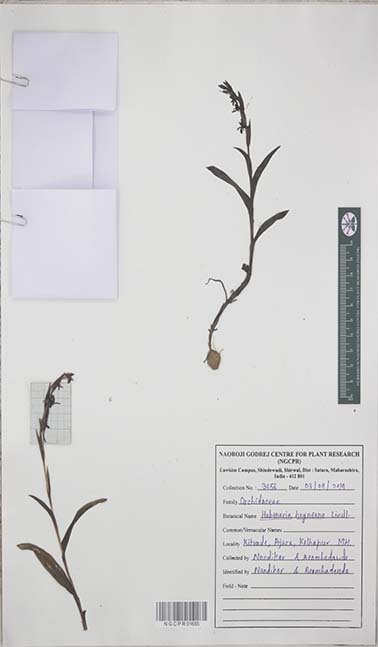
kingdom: Plantae
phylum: Tracheophyta
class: Liliopsida
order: Asparagales
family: Orchidaceae
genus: Habenaria
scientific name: Habenaria heyneana
